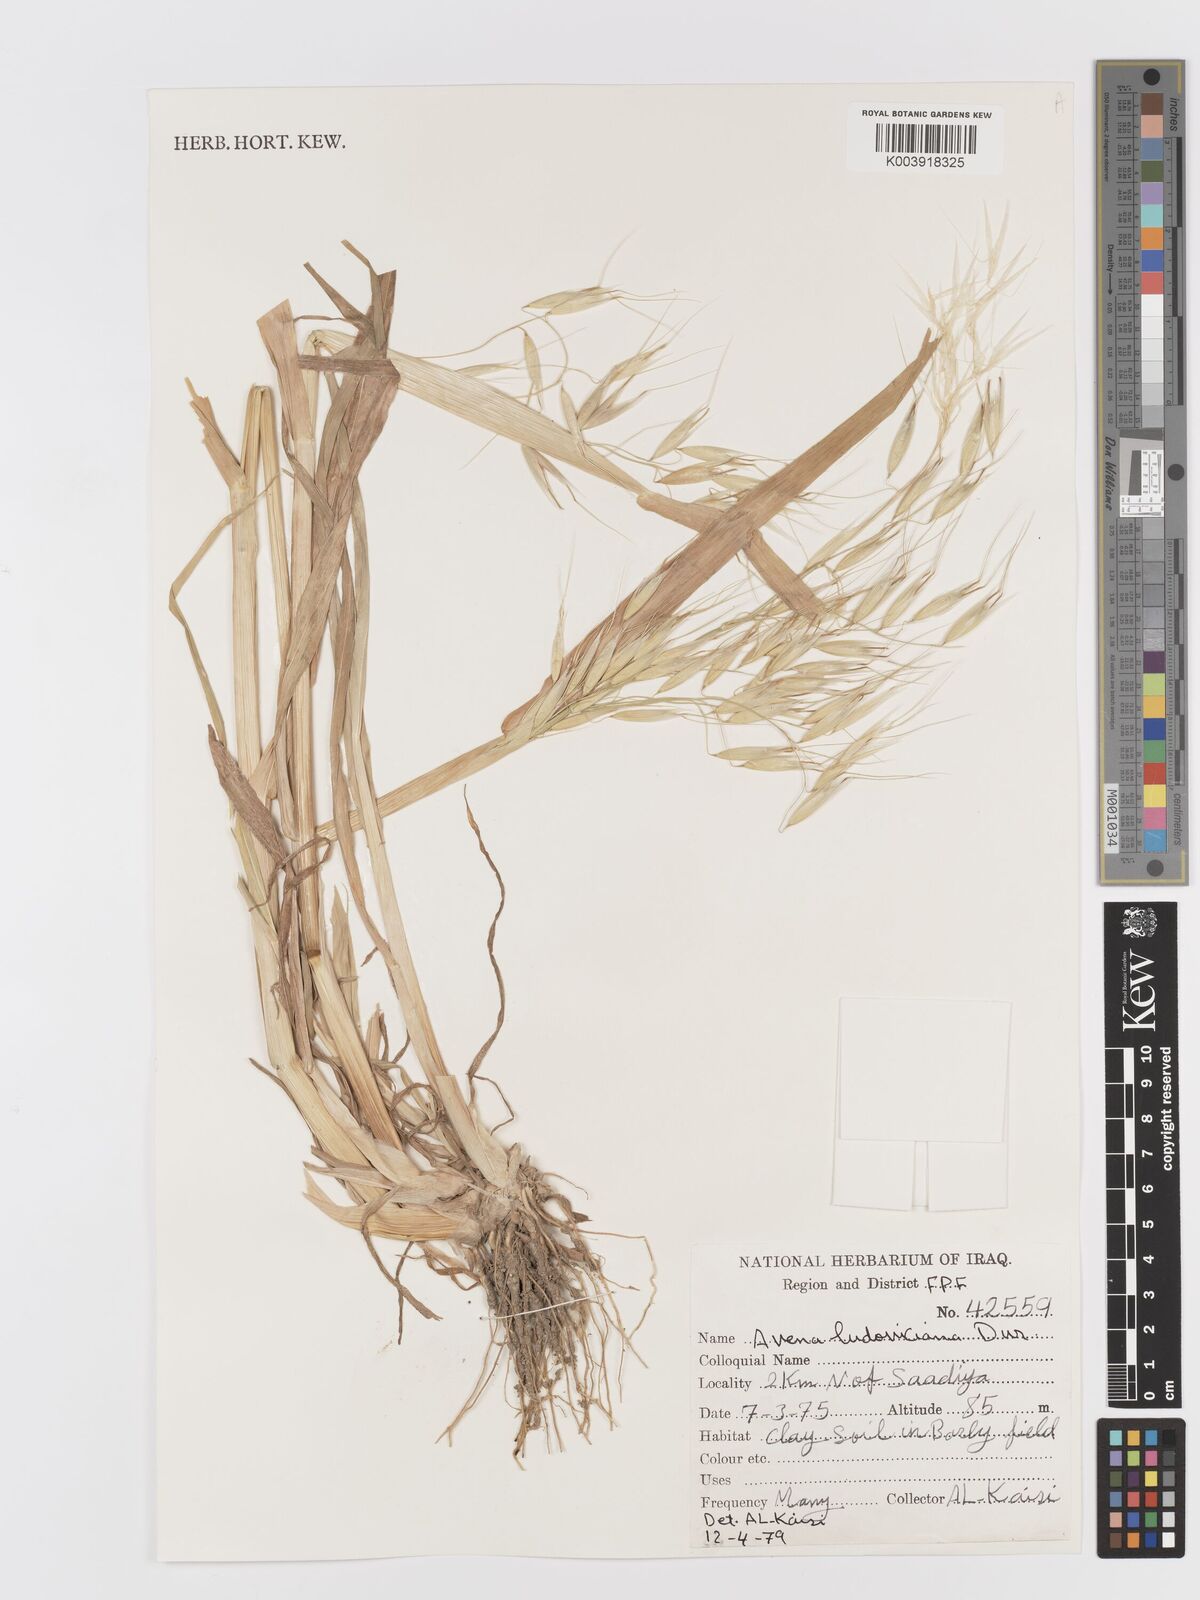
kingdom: Plantae
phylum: Tracheophyta
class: Liliopsida
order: Poales
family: Poaceae
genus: Avena
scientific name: Avena sterilis
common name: Animated oat
